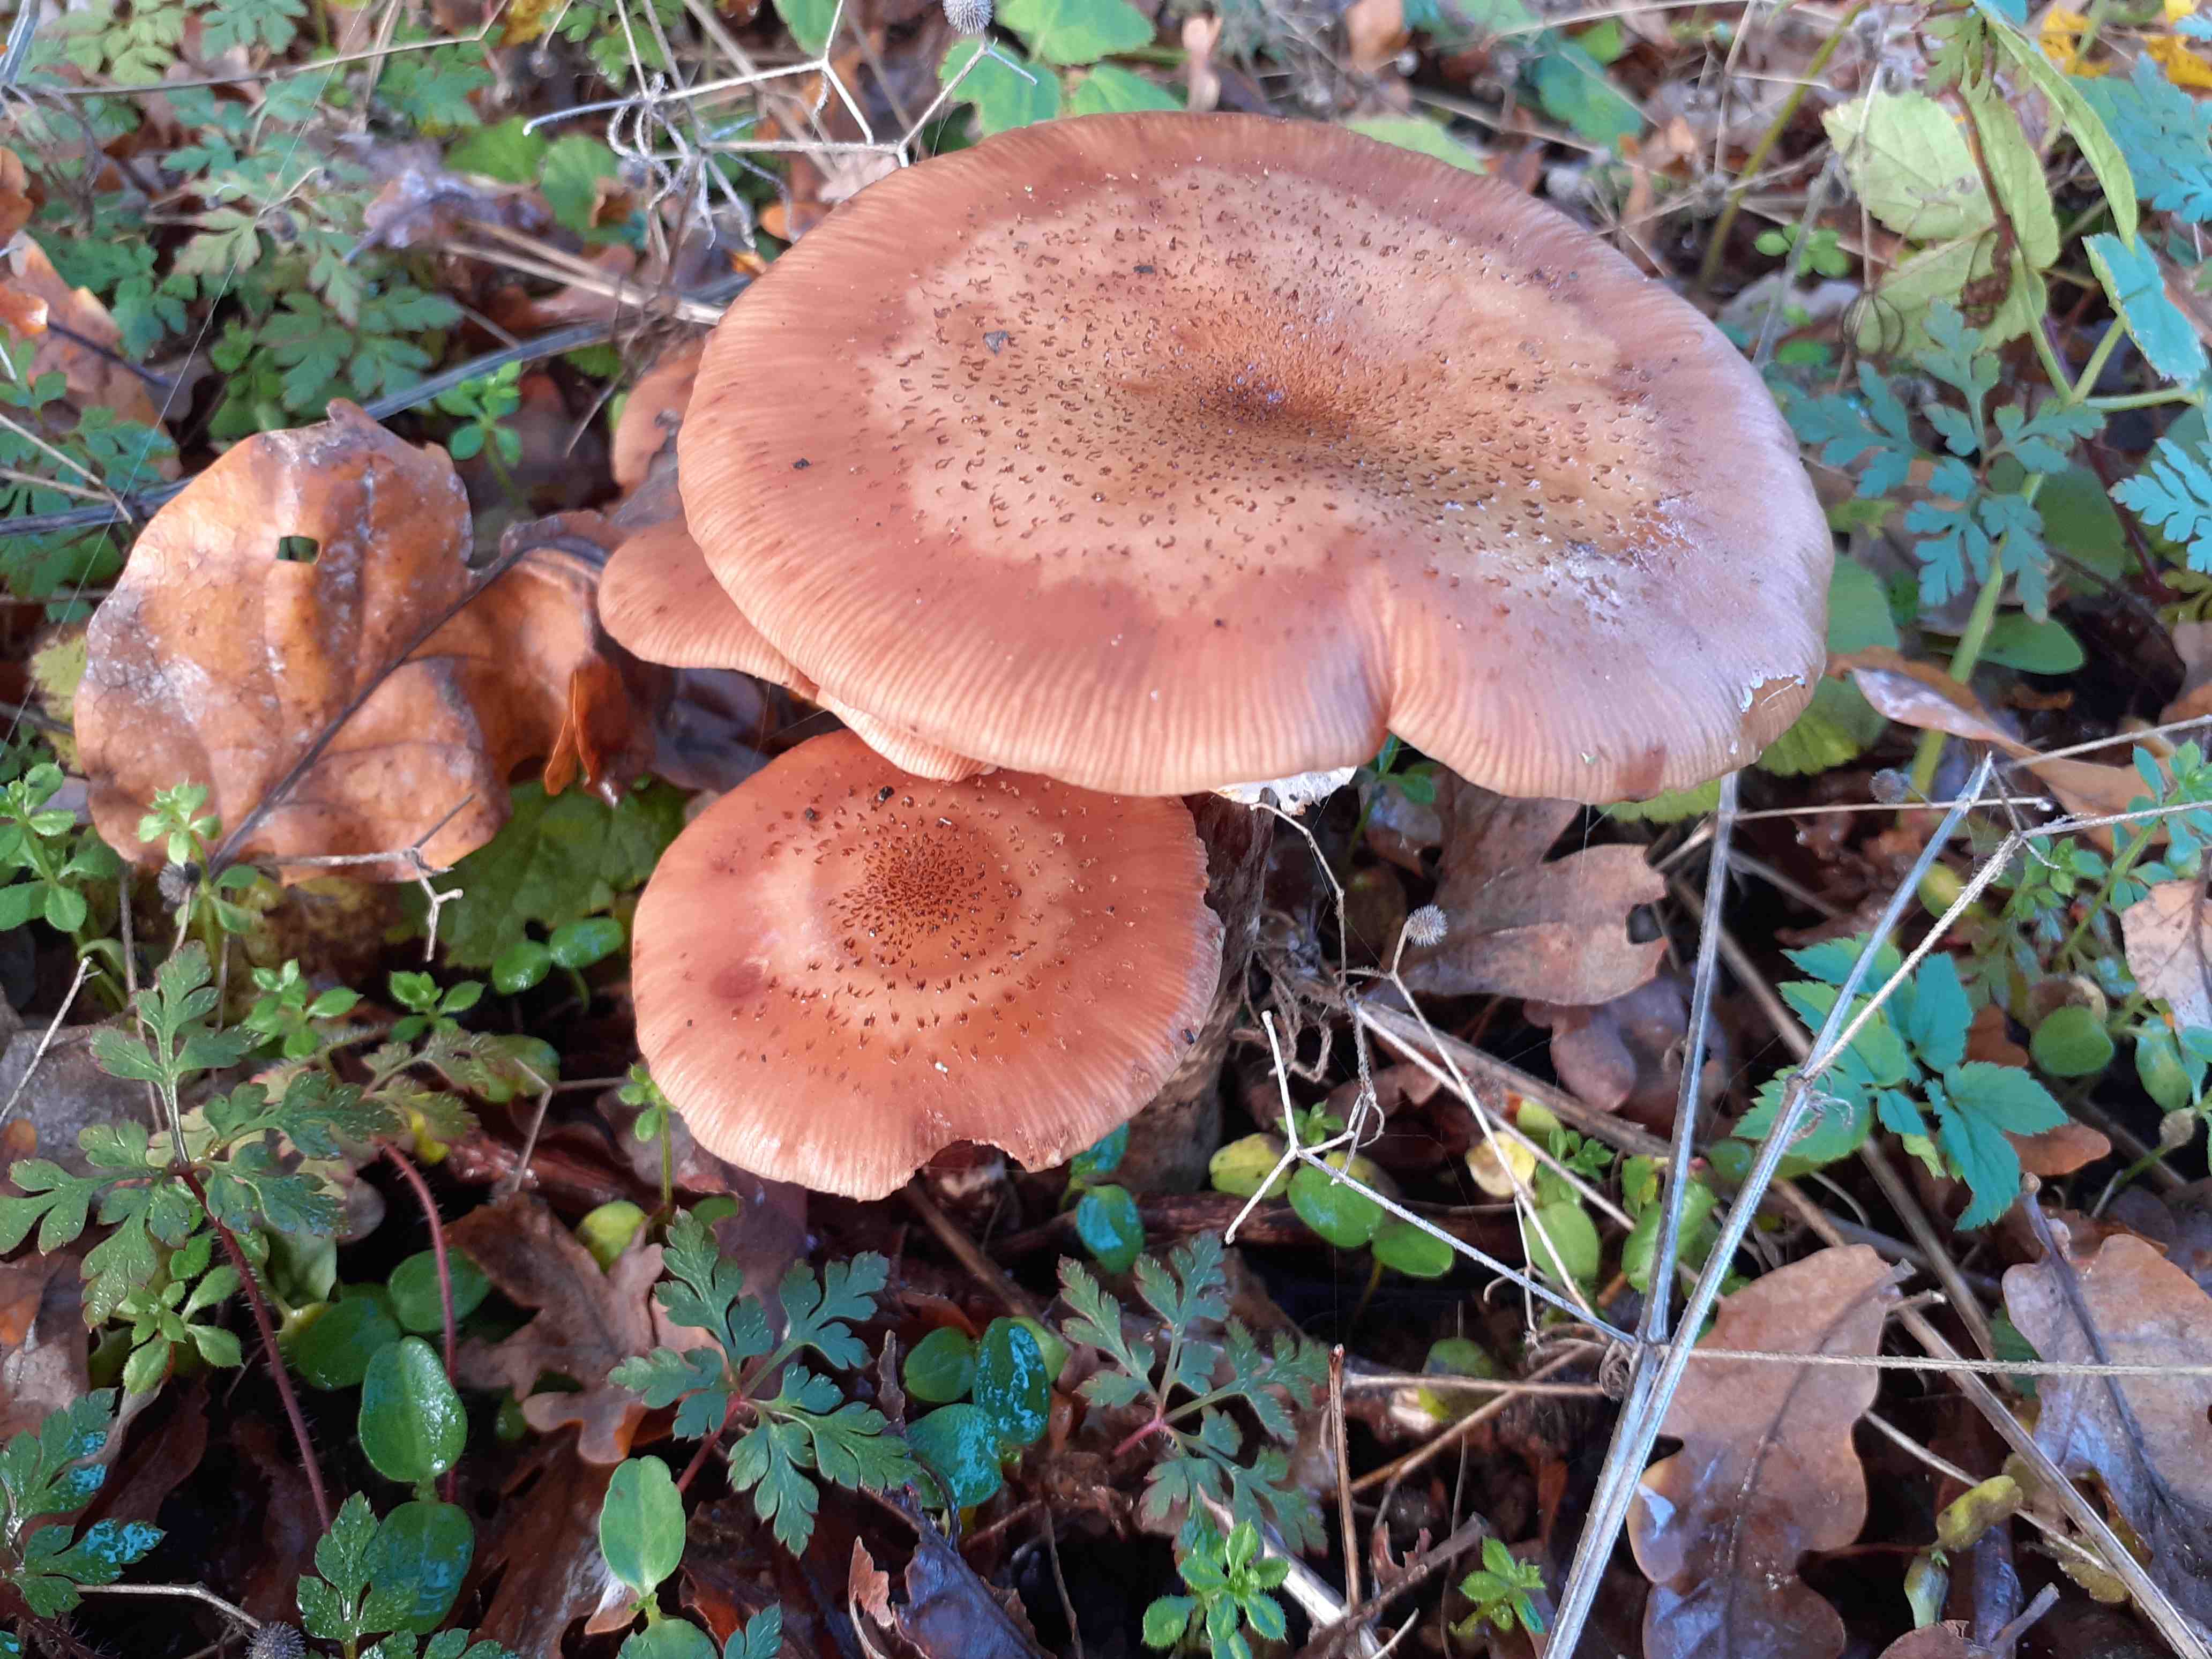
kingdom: Fungi
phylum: Basidiomycota
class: Agaricomycetes
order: Agaricales
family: Physalacriaceae
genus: Armillaria
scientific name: Armillaria lutea
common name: køllestokket honningsvamp
